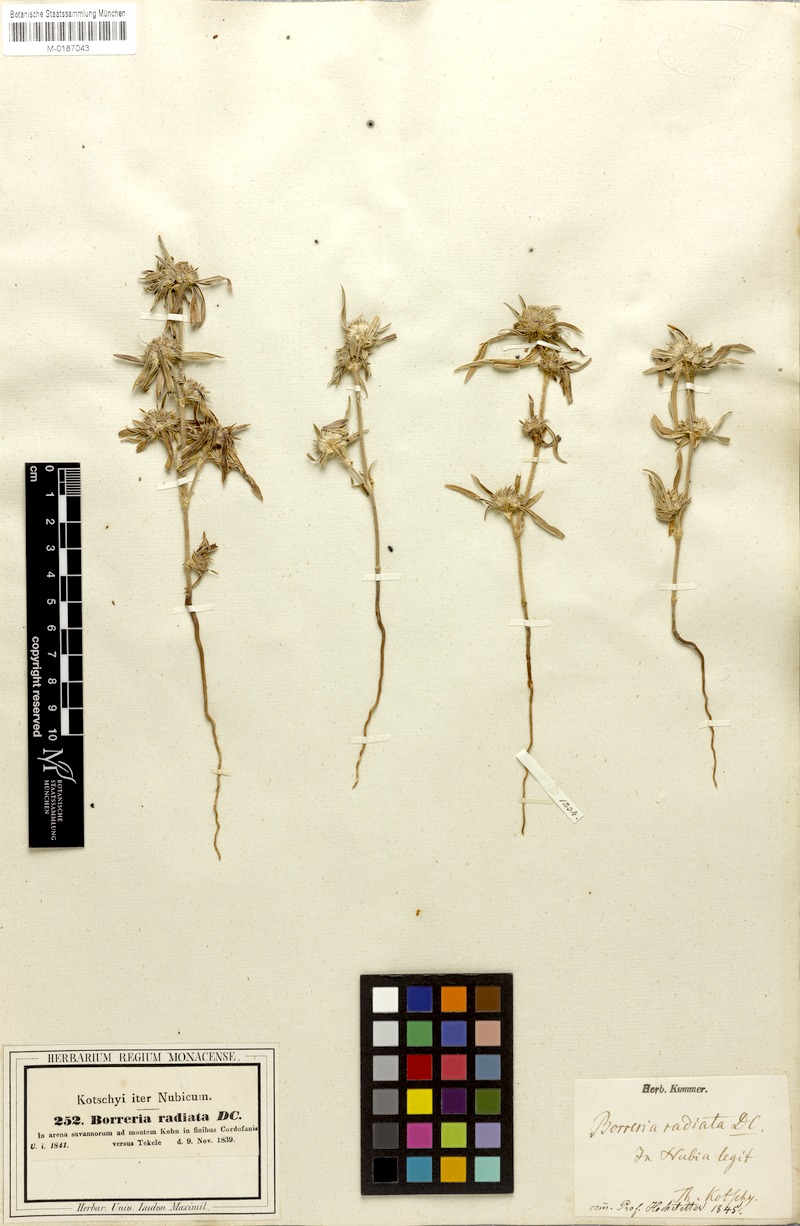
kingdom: Plantae
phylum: Tracheophyta
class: Magnoliopsida
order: Gentianales
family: Rubiaceae
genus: Spermacoce
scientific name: Spermacoce radiata
